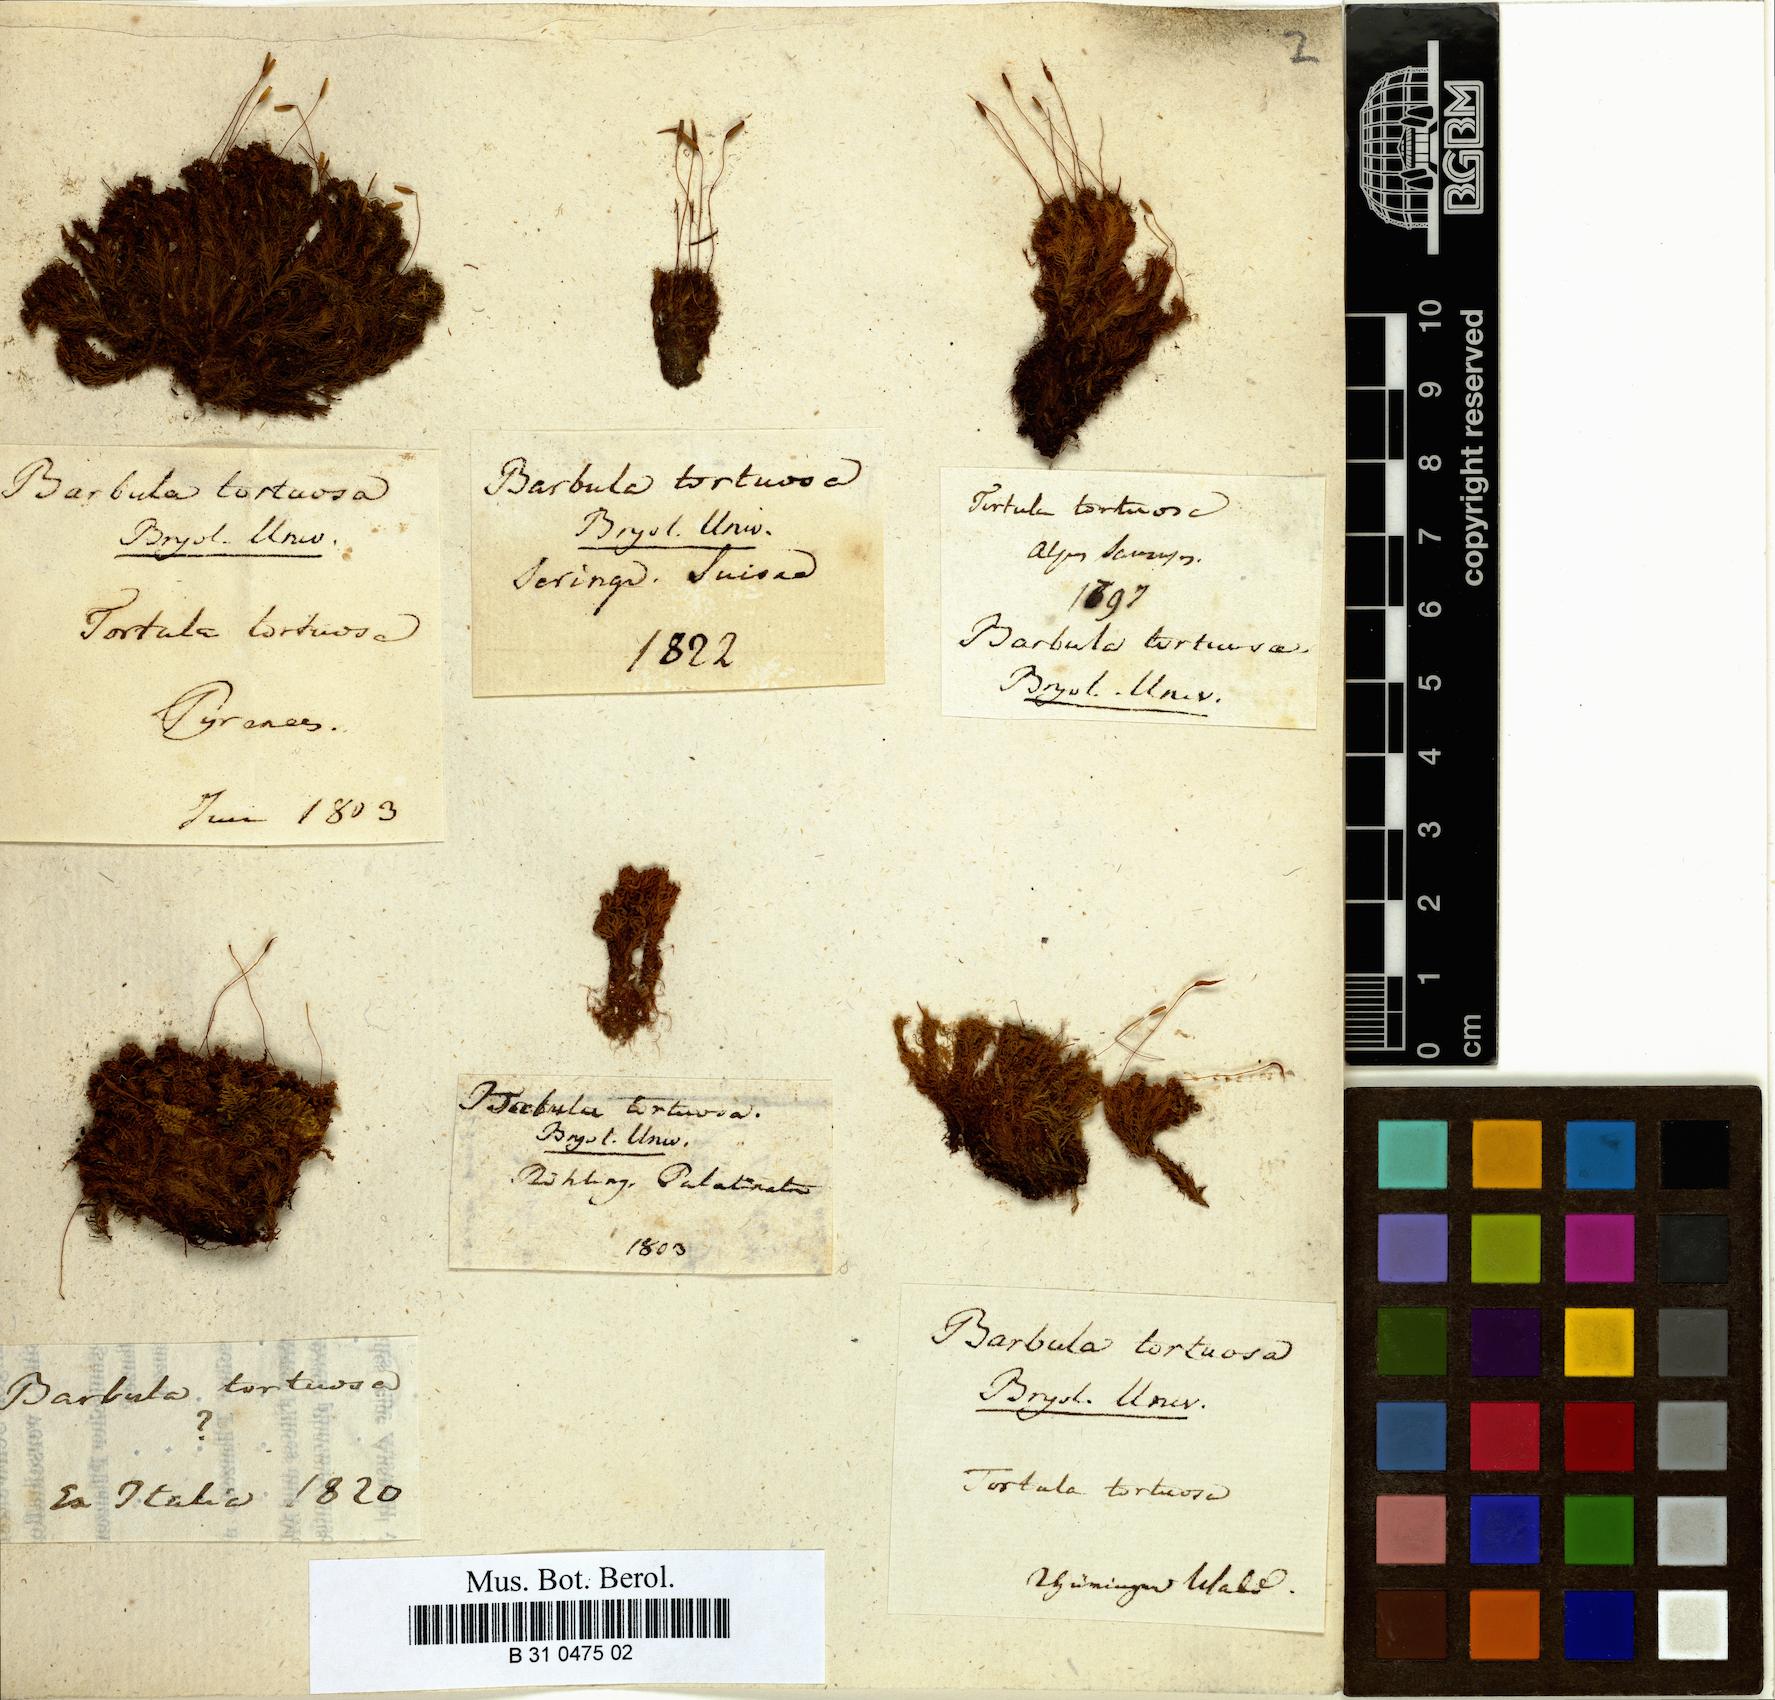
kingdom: Plantae
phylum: Bryophyta
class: Bryopsida
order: Pottiales
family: Pottiaceae
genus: Tortella
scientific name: Tortella tortuosa
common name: Frizzled crisp moss
